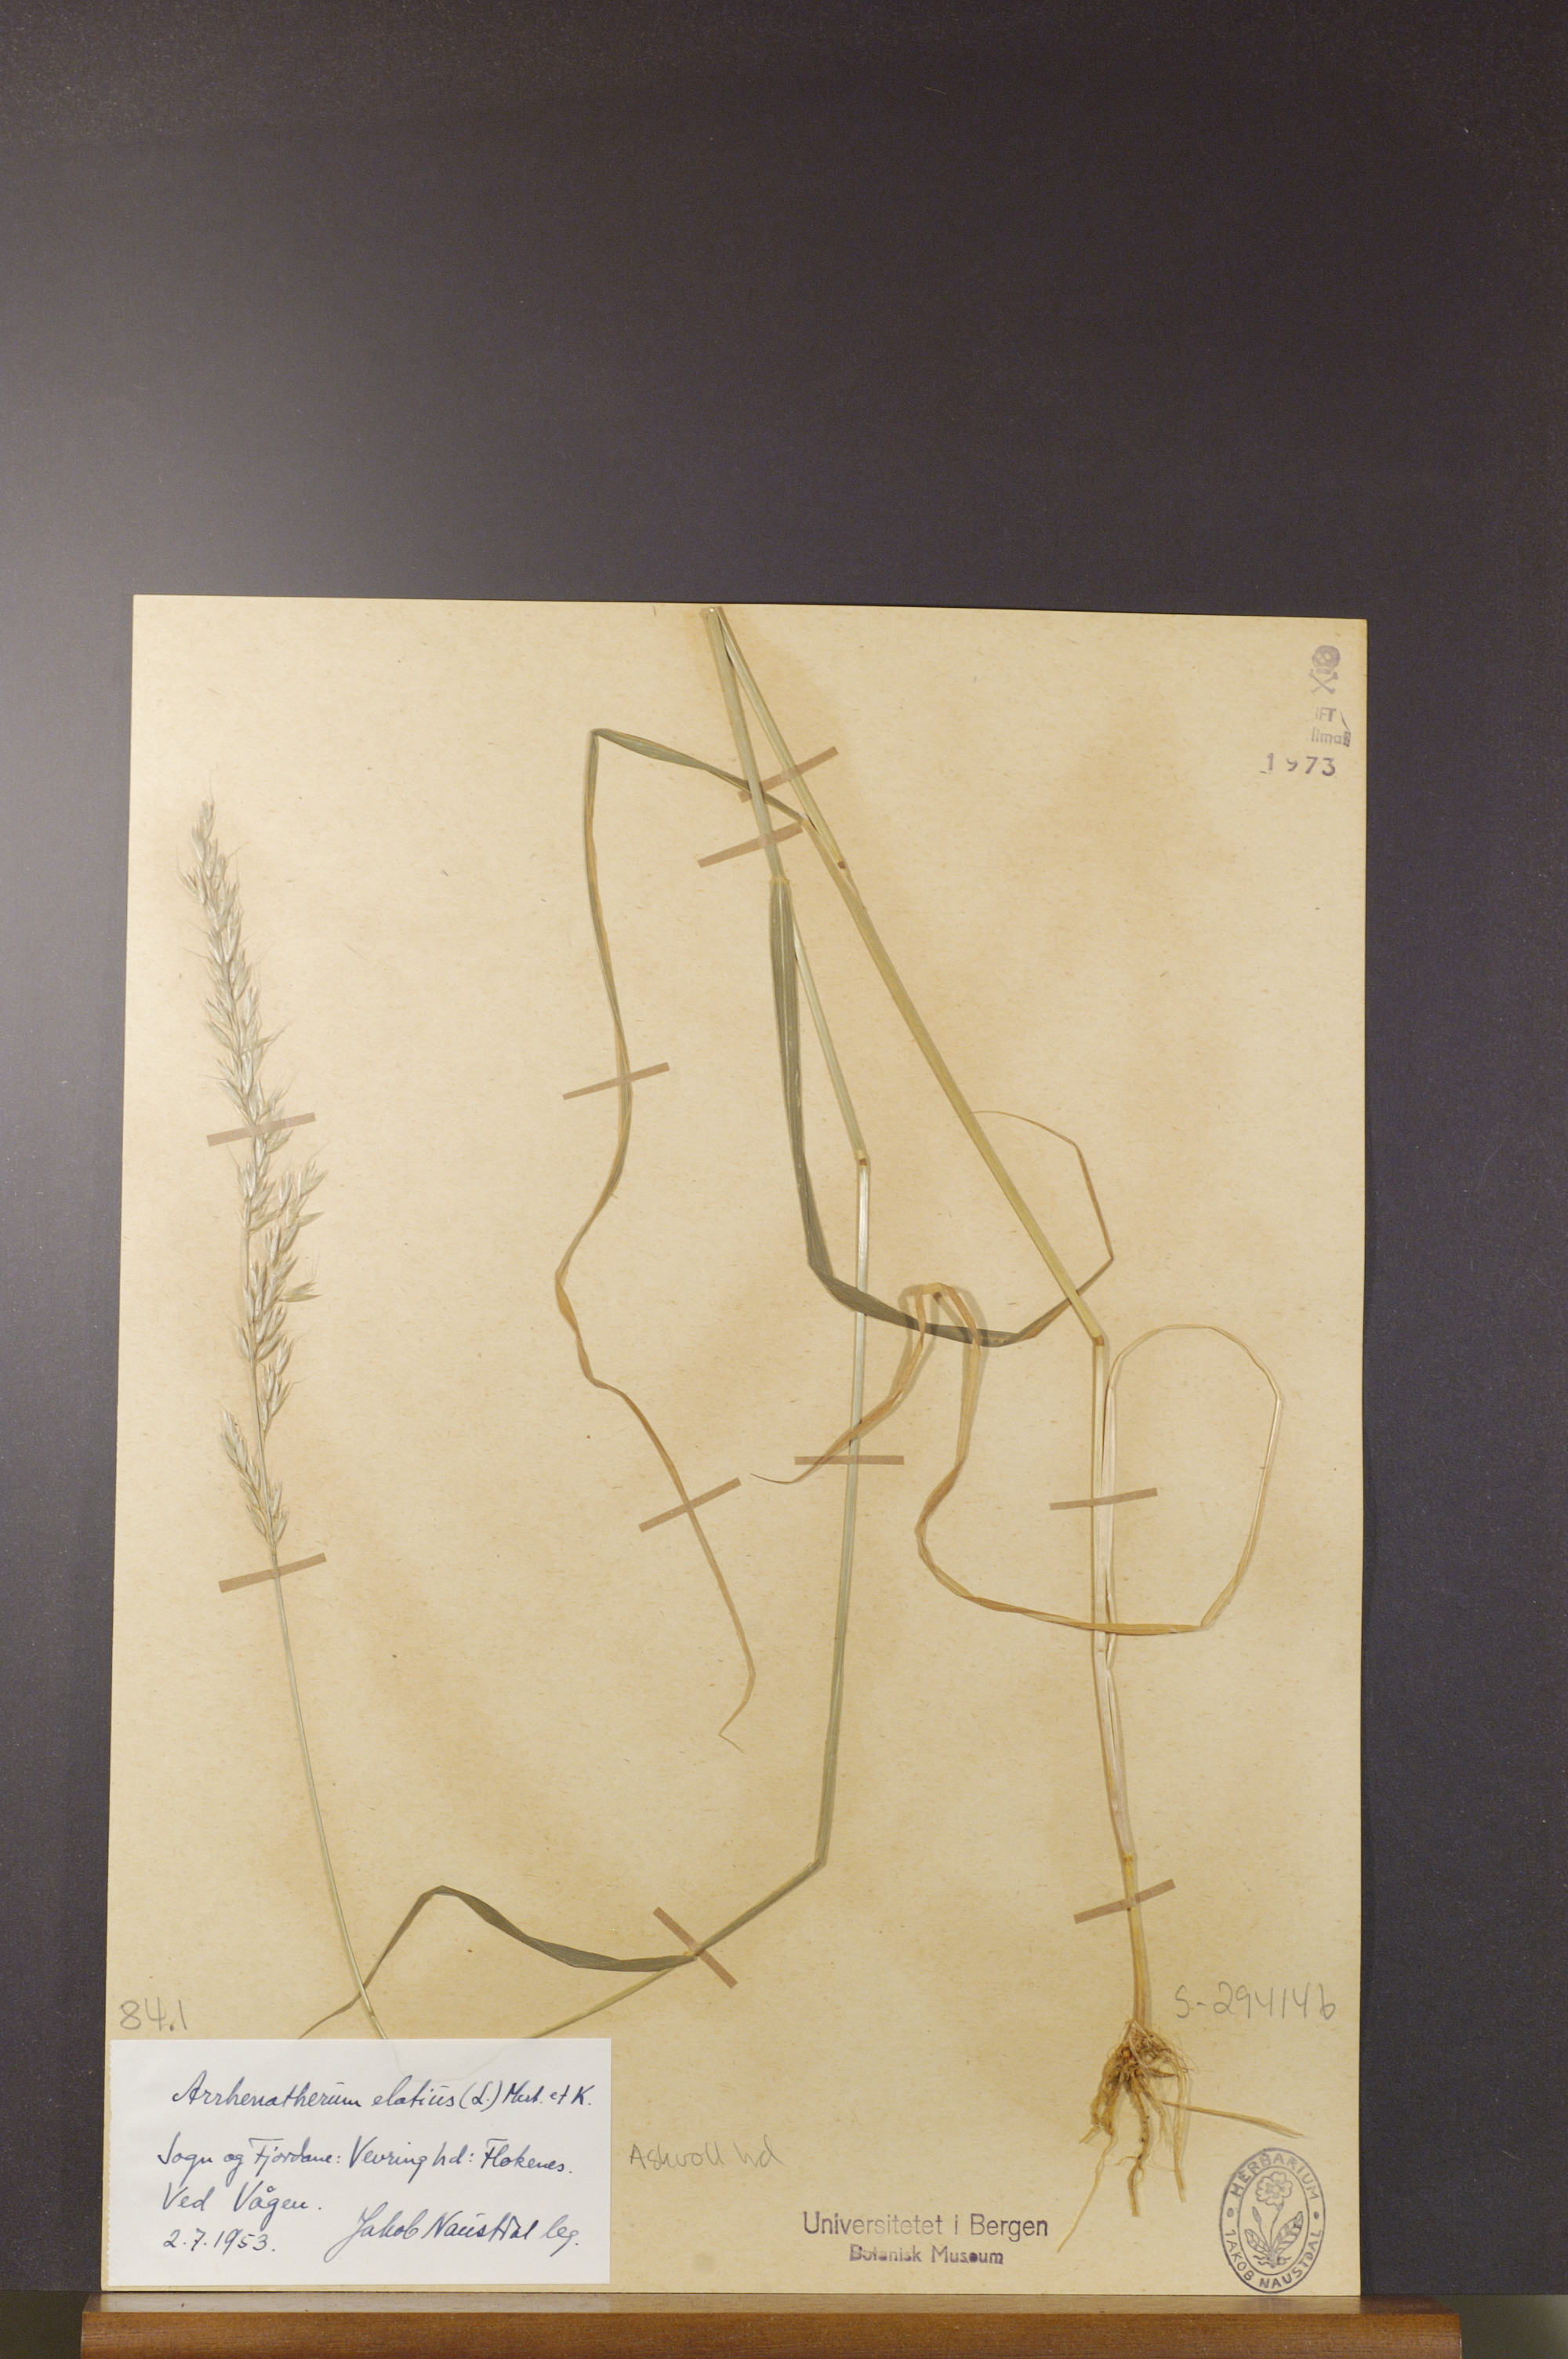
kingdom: Plantae
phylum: Tracheophyta
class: Liliopsida
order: Poales
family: Poaceae
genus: Arrhenatherum
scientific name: Arrhenatherum elatius
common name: Tall oatgrass
